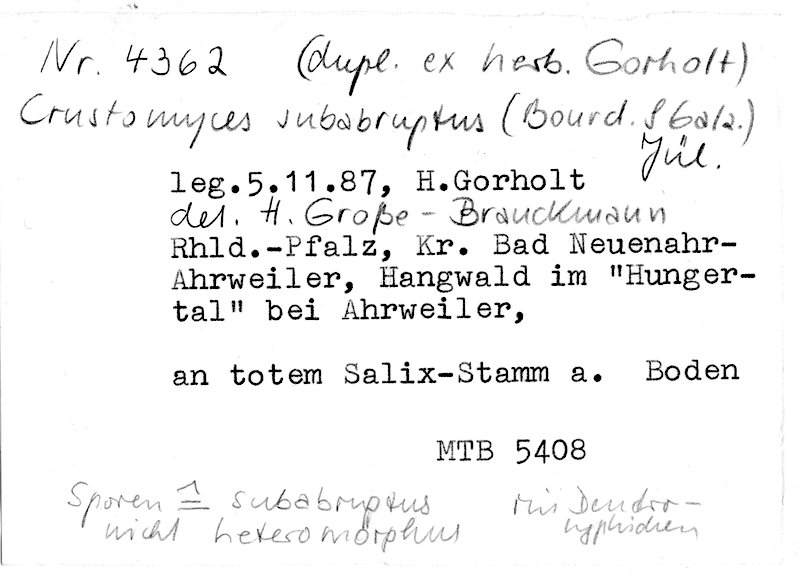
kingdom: Plantae
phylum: Tracheophyta
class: Magnoliopsida
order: Malpighiales
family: Salicaceae
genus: Salix
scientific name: Salix
